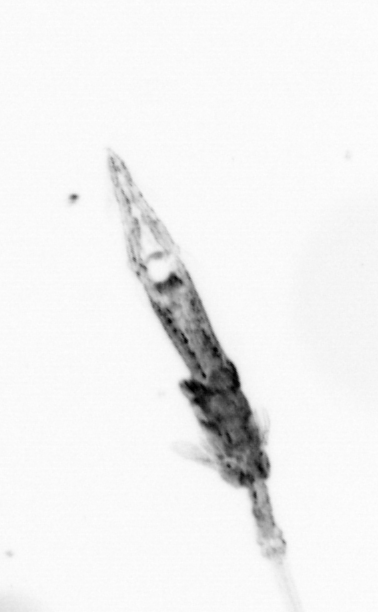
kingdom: Animalia
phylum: Arthropoda
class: Copepoda
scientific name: Copepoda
